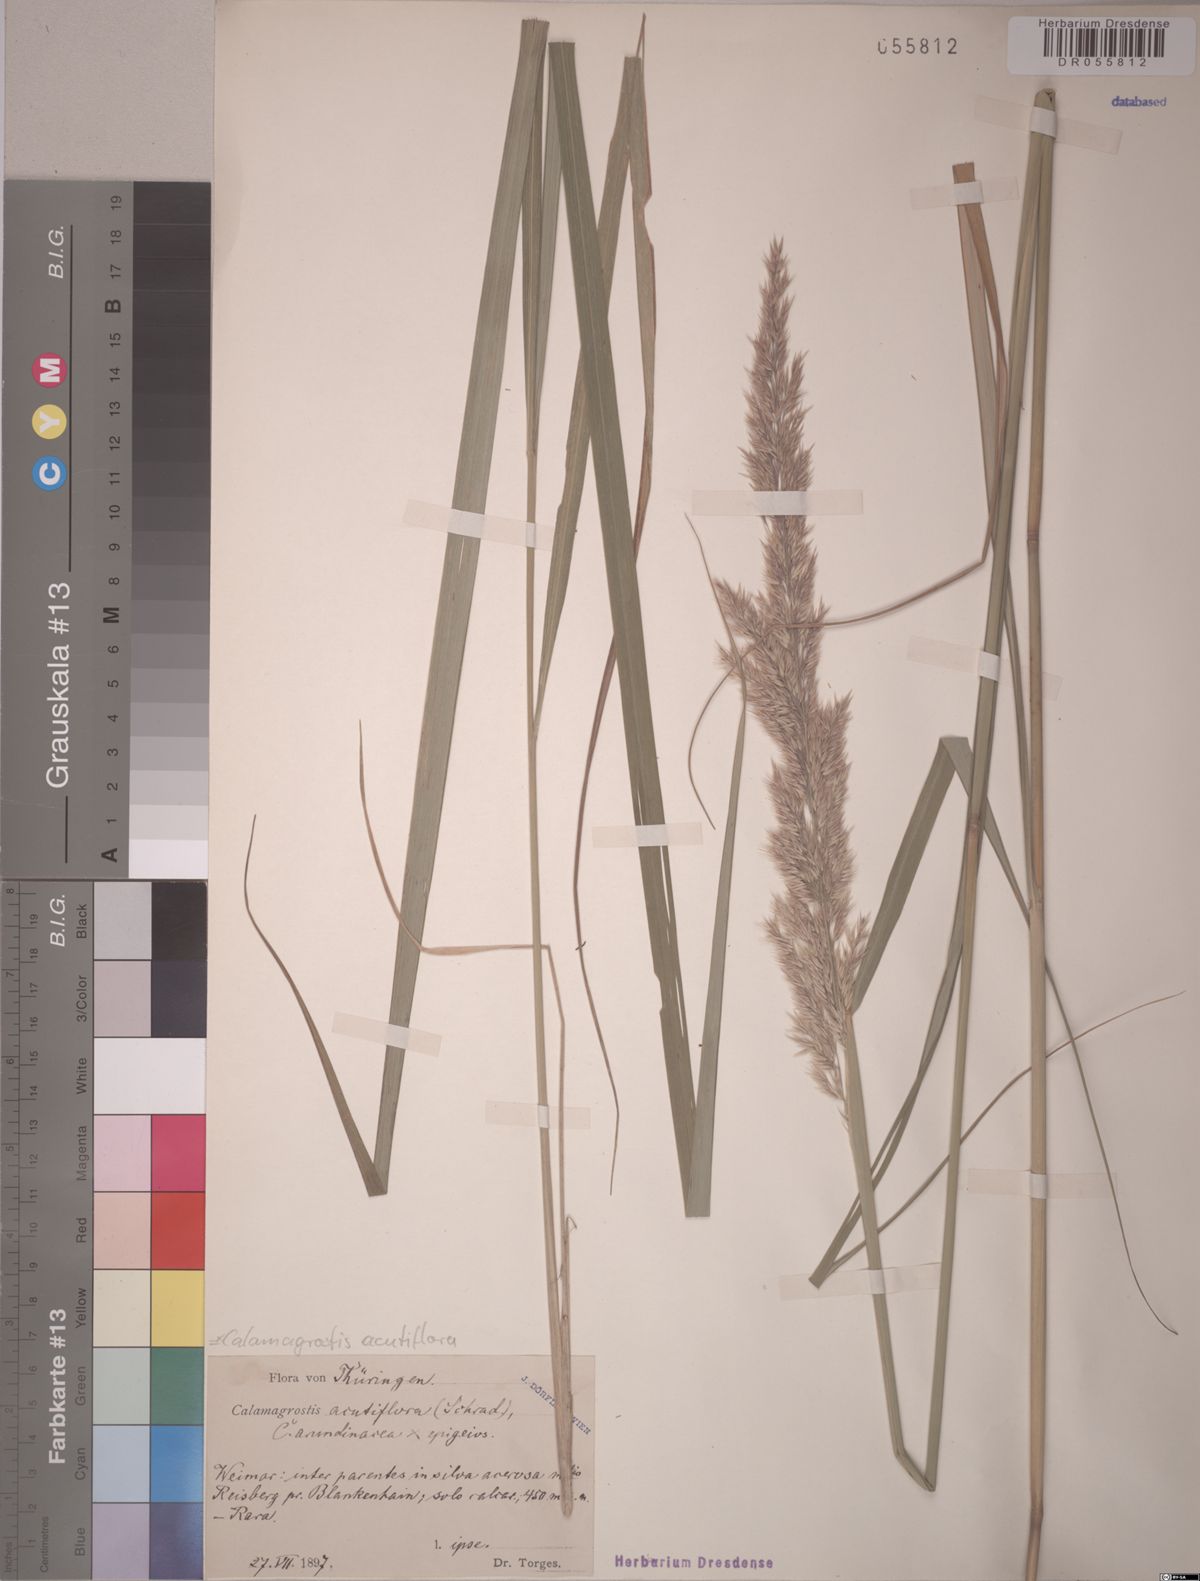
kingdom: Plantae
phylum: Tracheophyta
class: Liliopsida
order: Poales
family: Poaceae
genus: Calamagrostis
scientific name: Calamagrostis acutiflora
